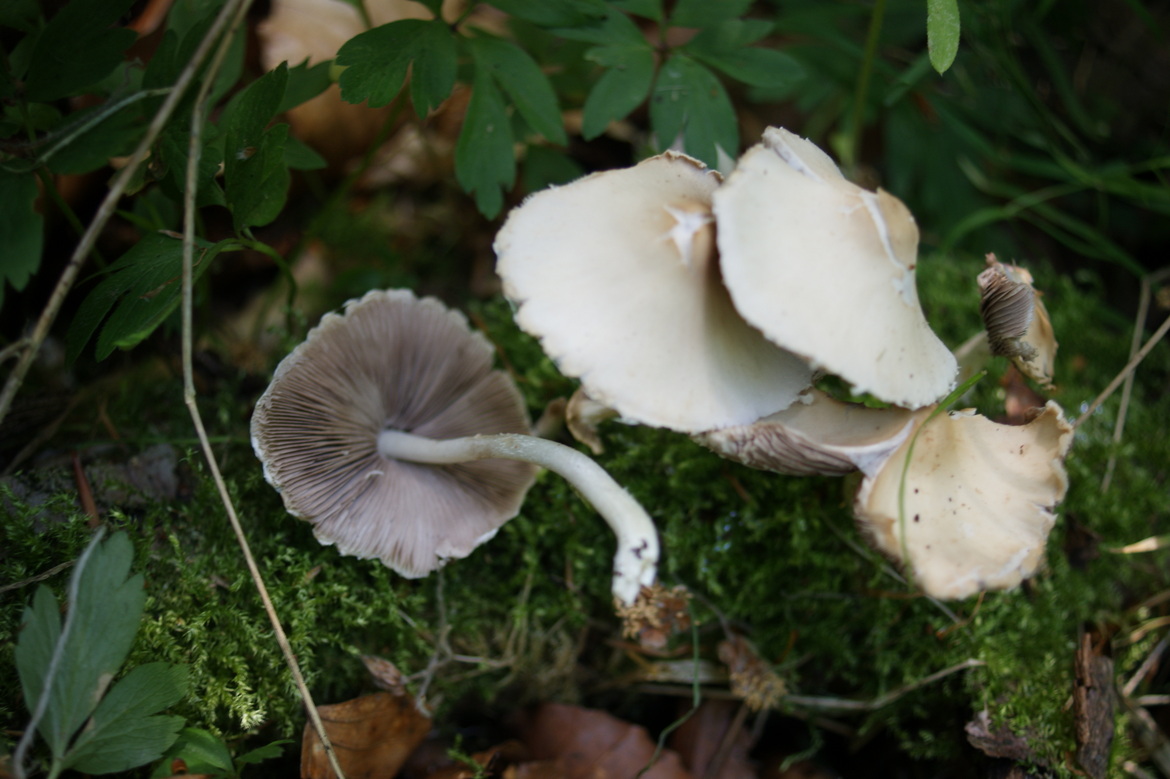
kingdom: Fungi
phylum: Basidiomycota
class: Agaricomycetes
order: Agaricales
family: Psathyrellaceae
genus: Candolleomyces
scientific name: Candolleomyces candolleanus
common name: Candolles mørkhat
